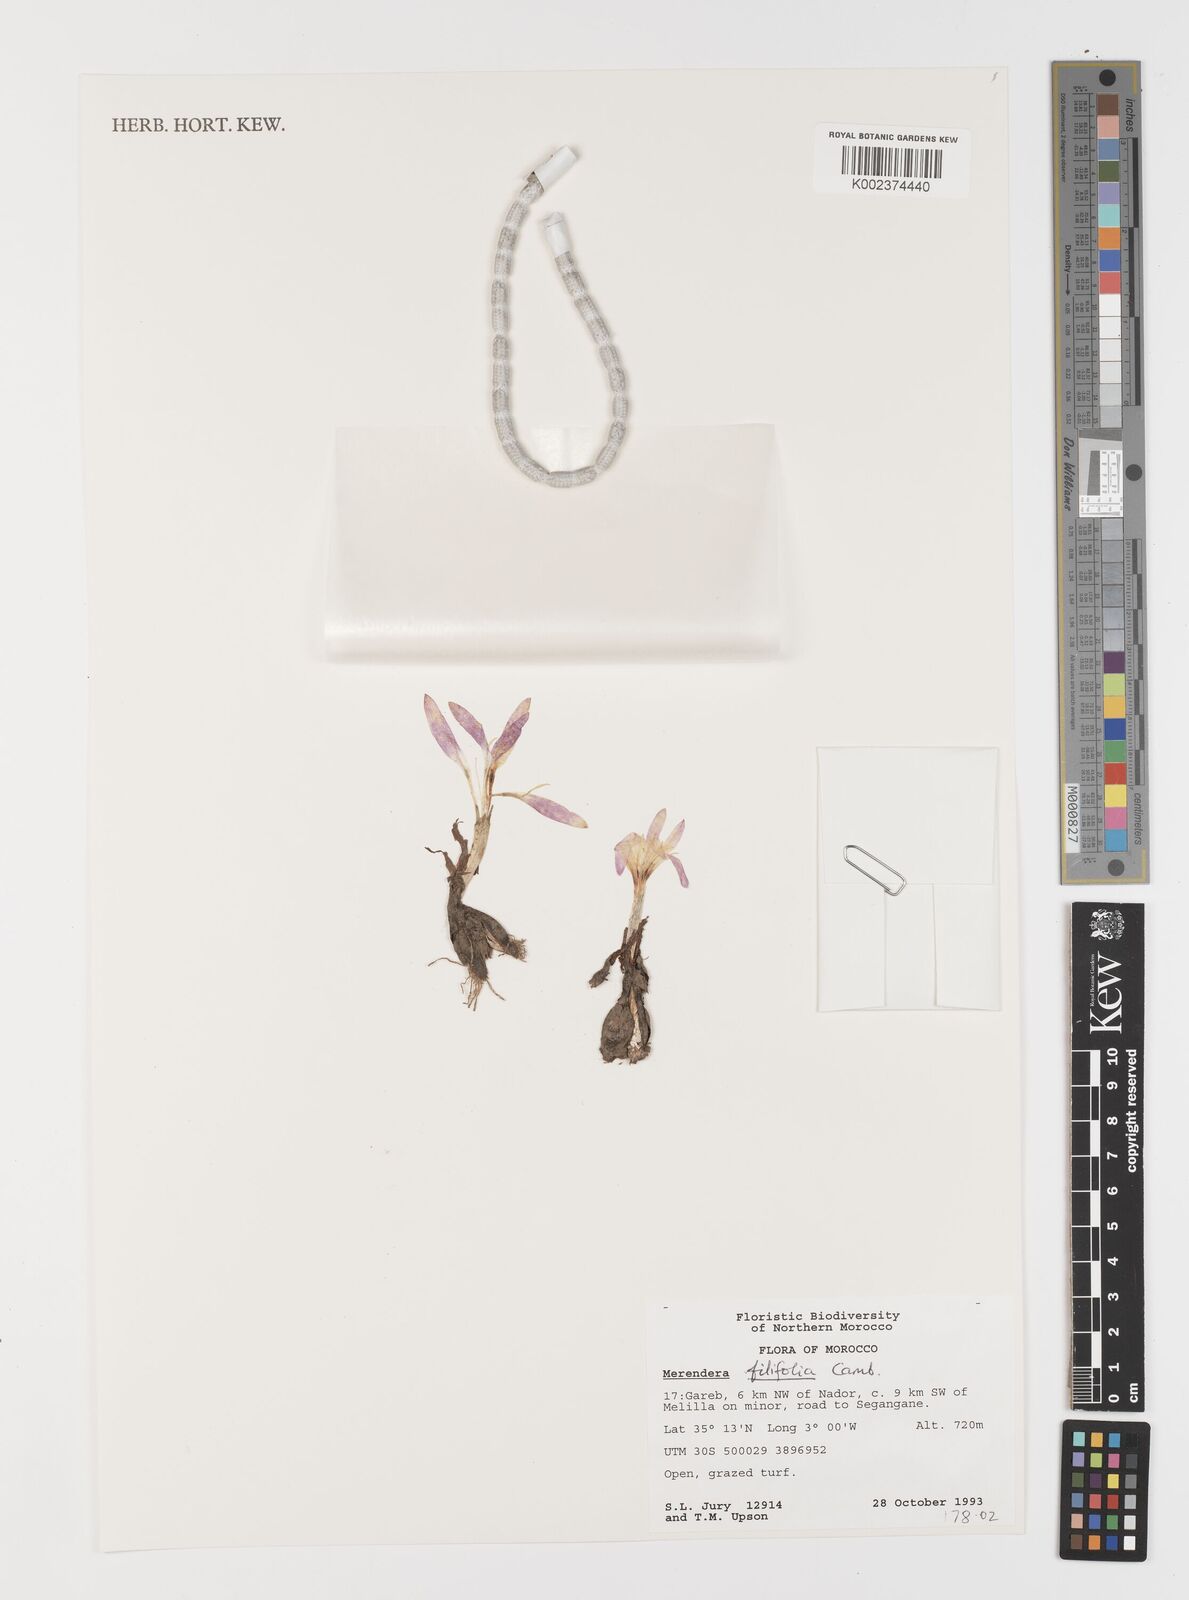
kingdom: Plantae
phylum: Tracheophyta
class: Liliopsida
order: Liliales
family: Colchicaceae
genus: Colchicum
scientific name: Colchicum filifolium
